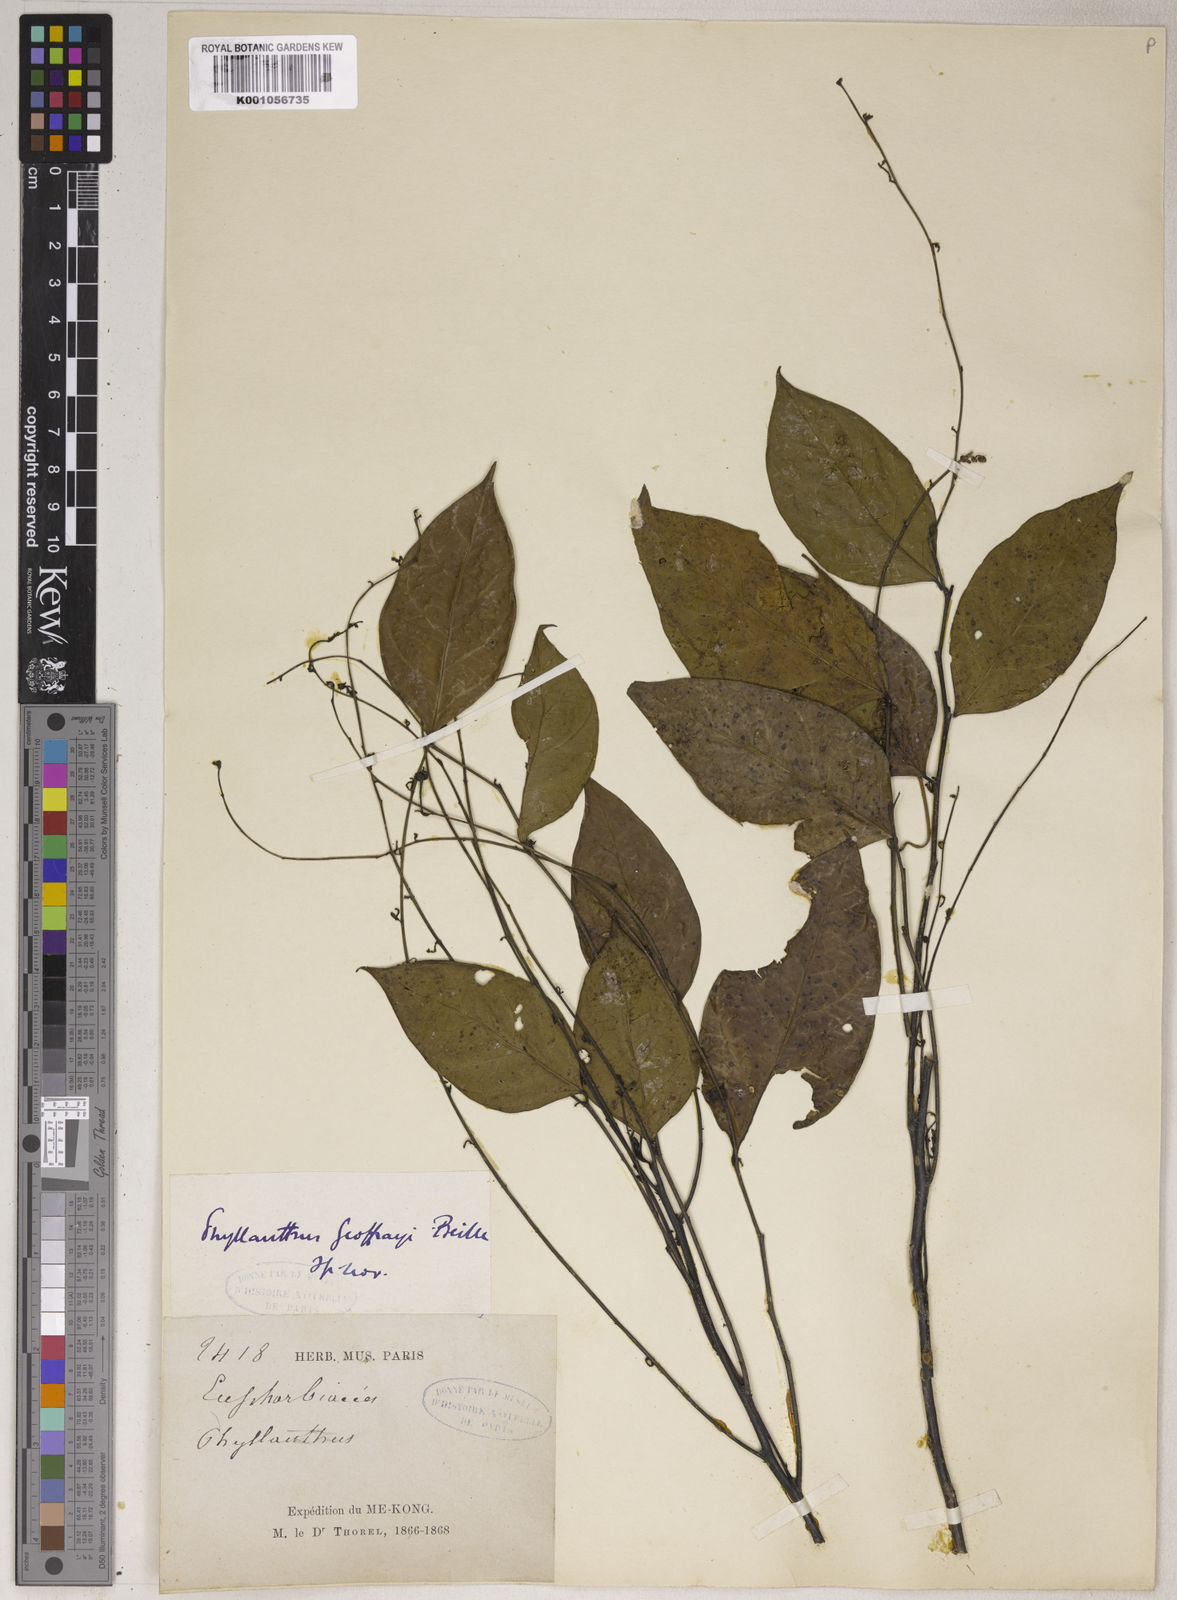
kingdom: Plantae
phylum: Tracheophyta
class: Magnoliopsida
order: Malpighiales
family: Phyllanthaceae
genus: Phyllanthus
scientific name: Phyllanthus geoffrayi
